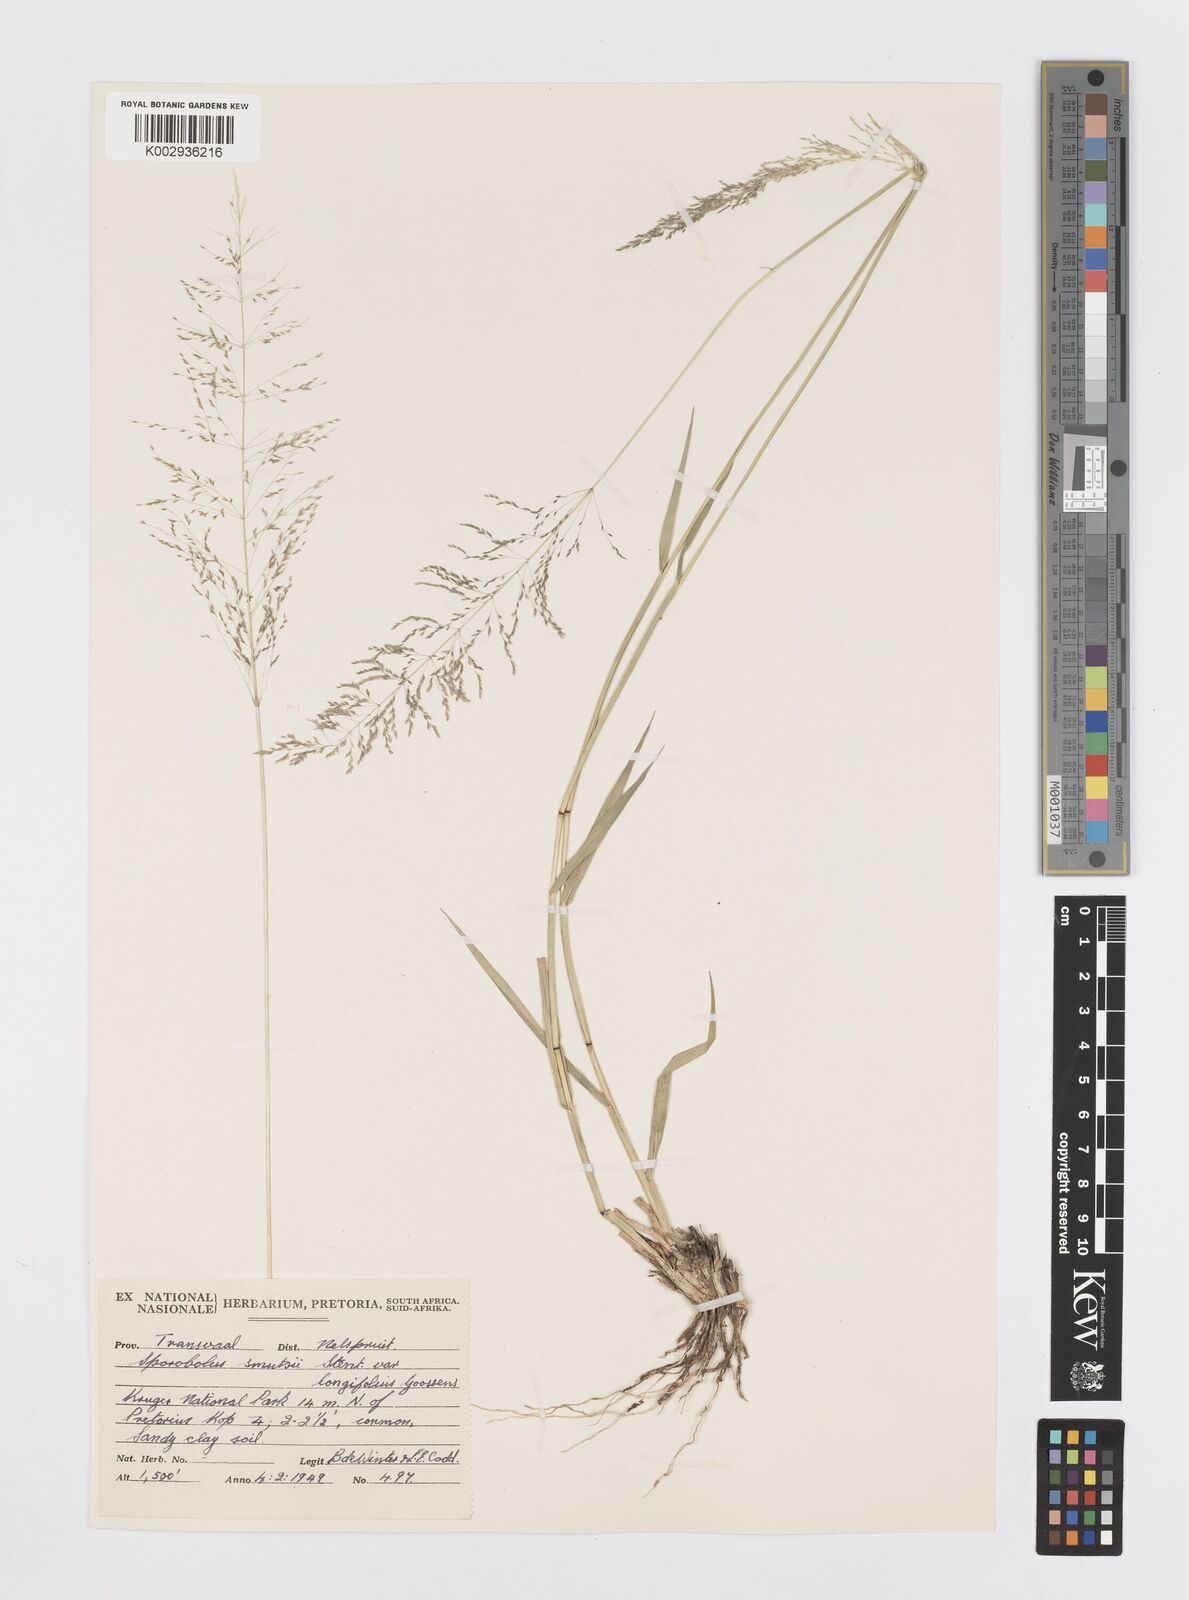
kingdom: Plantae
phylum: Tracheophyta
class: Liliopsida
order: Poales
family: Poaceae
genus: Sporobolus
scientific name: Sporobolus ioclados
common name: Pan dropseed
